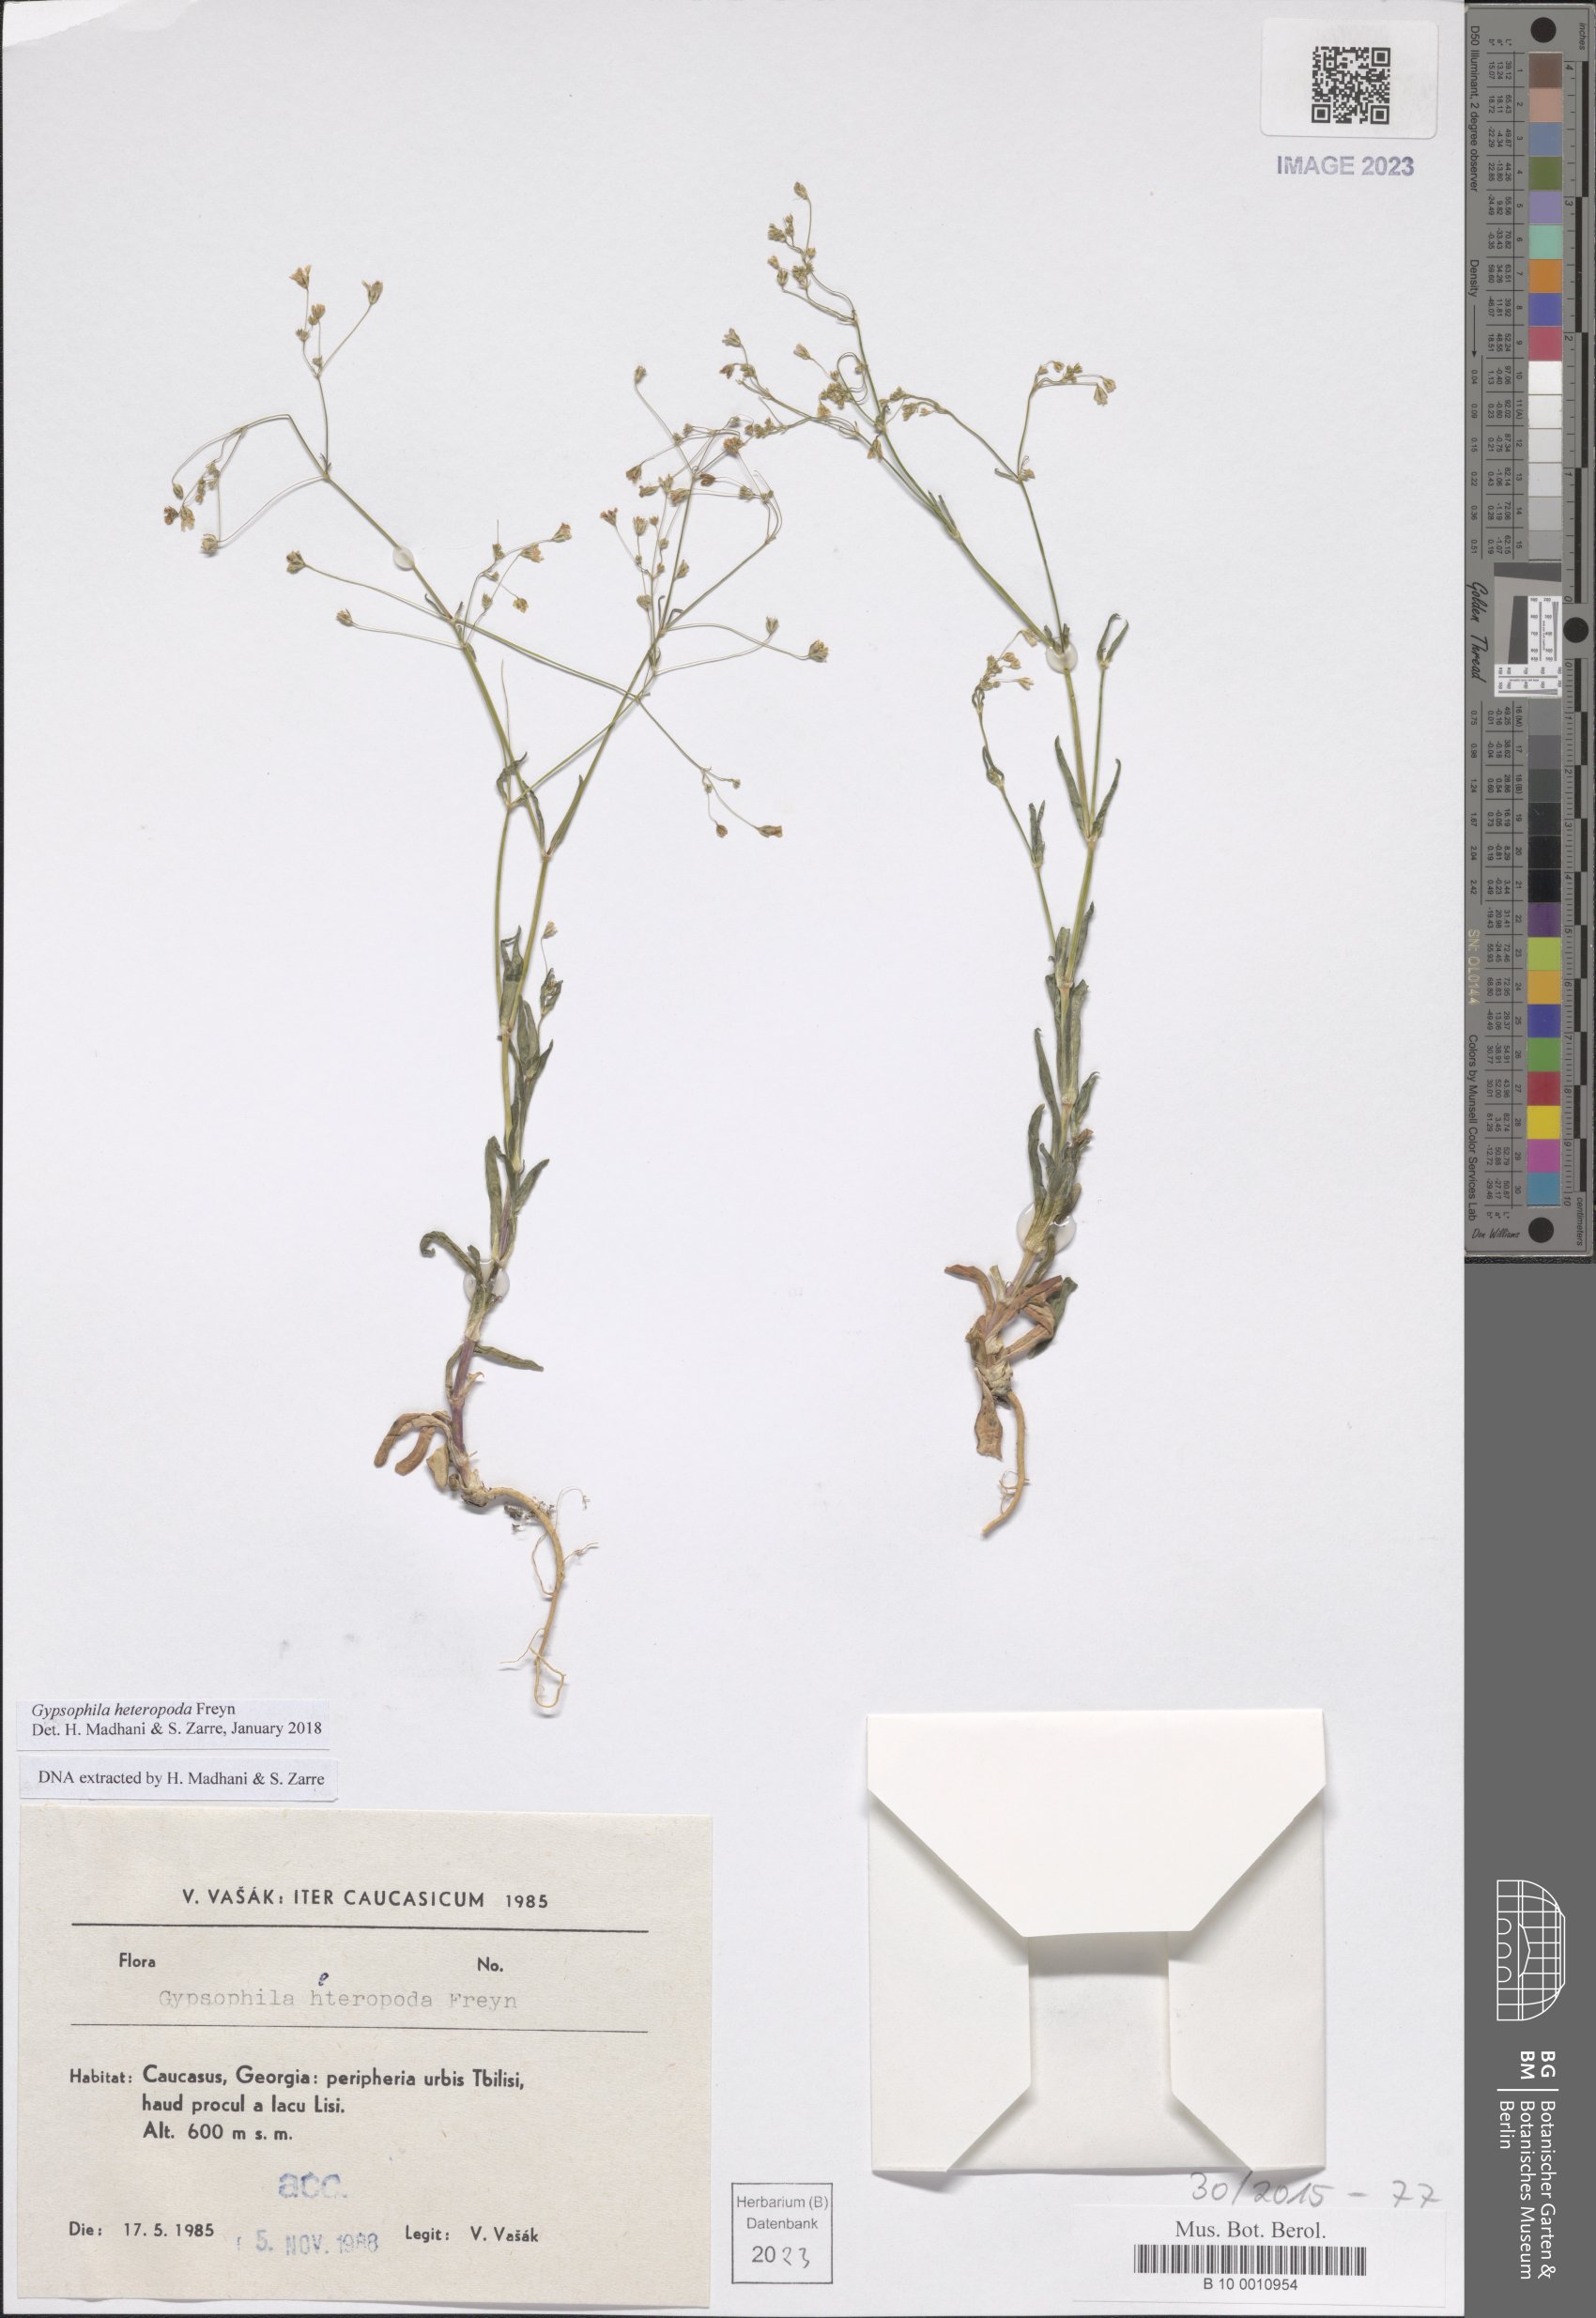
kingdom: Plantae
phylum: Tracheophyta
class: Magnoliopsida
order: Caryophyllales
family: Caryophyllaceae
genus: Gypsophila
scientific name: Gypsophila heteropoda
